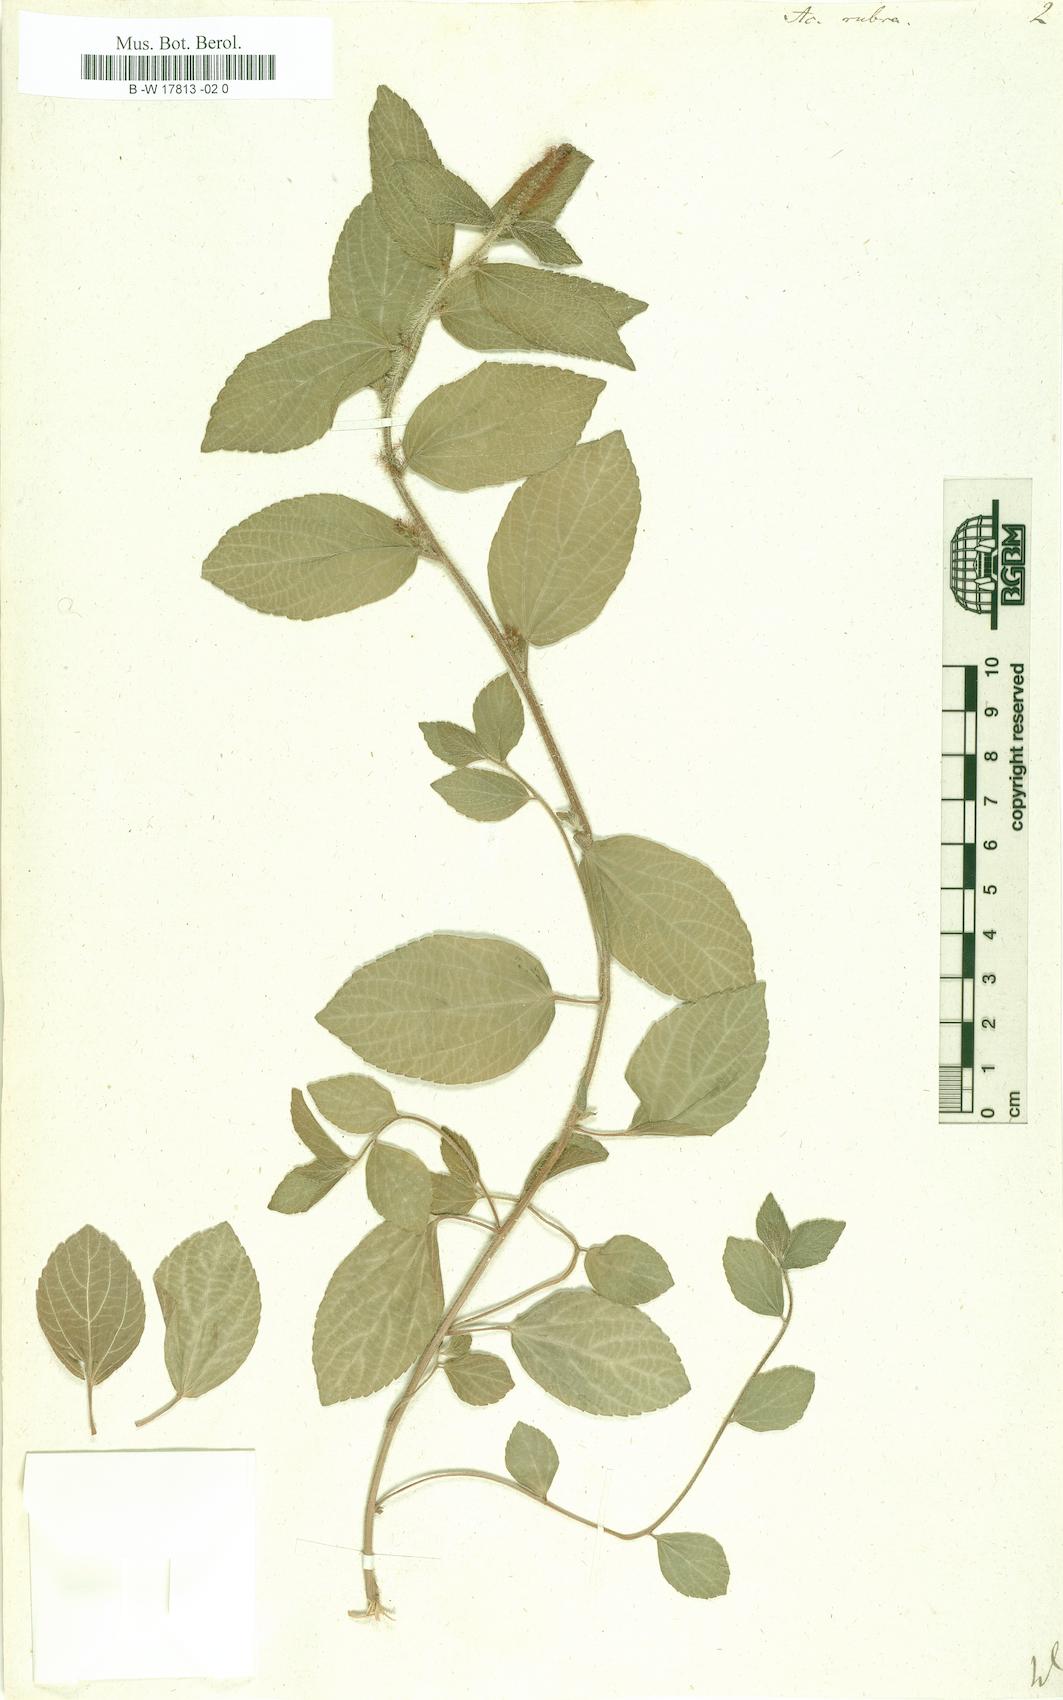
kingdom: Plantae
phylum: Tracheophyta
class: Magnoliopsida
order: Malpighiales
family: Euphorbiaceae
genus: Acalypha
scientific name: Acalypha phleoides
